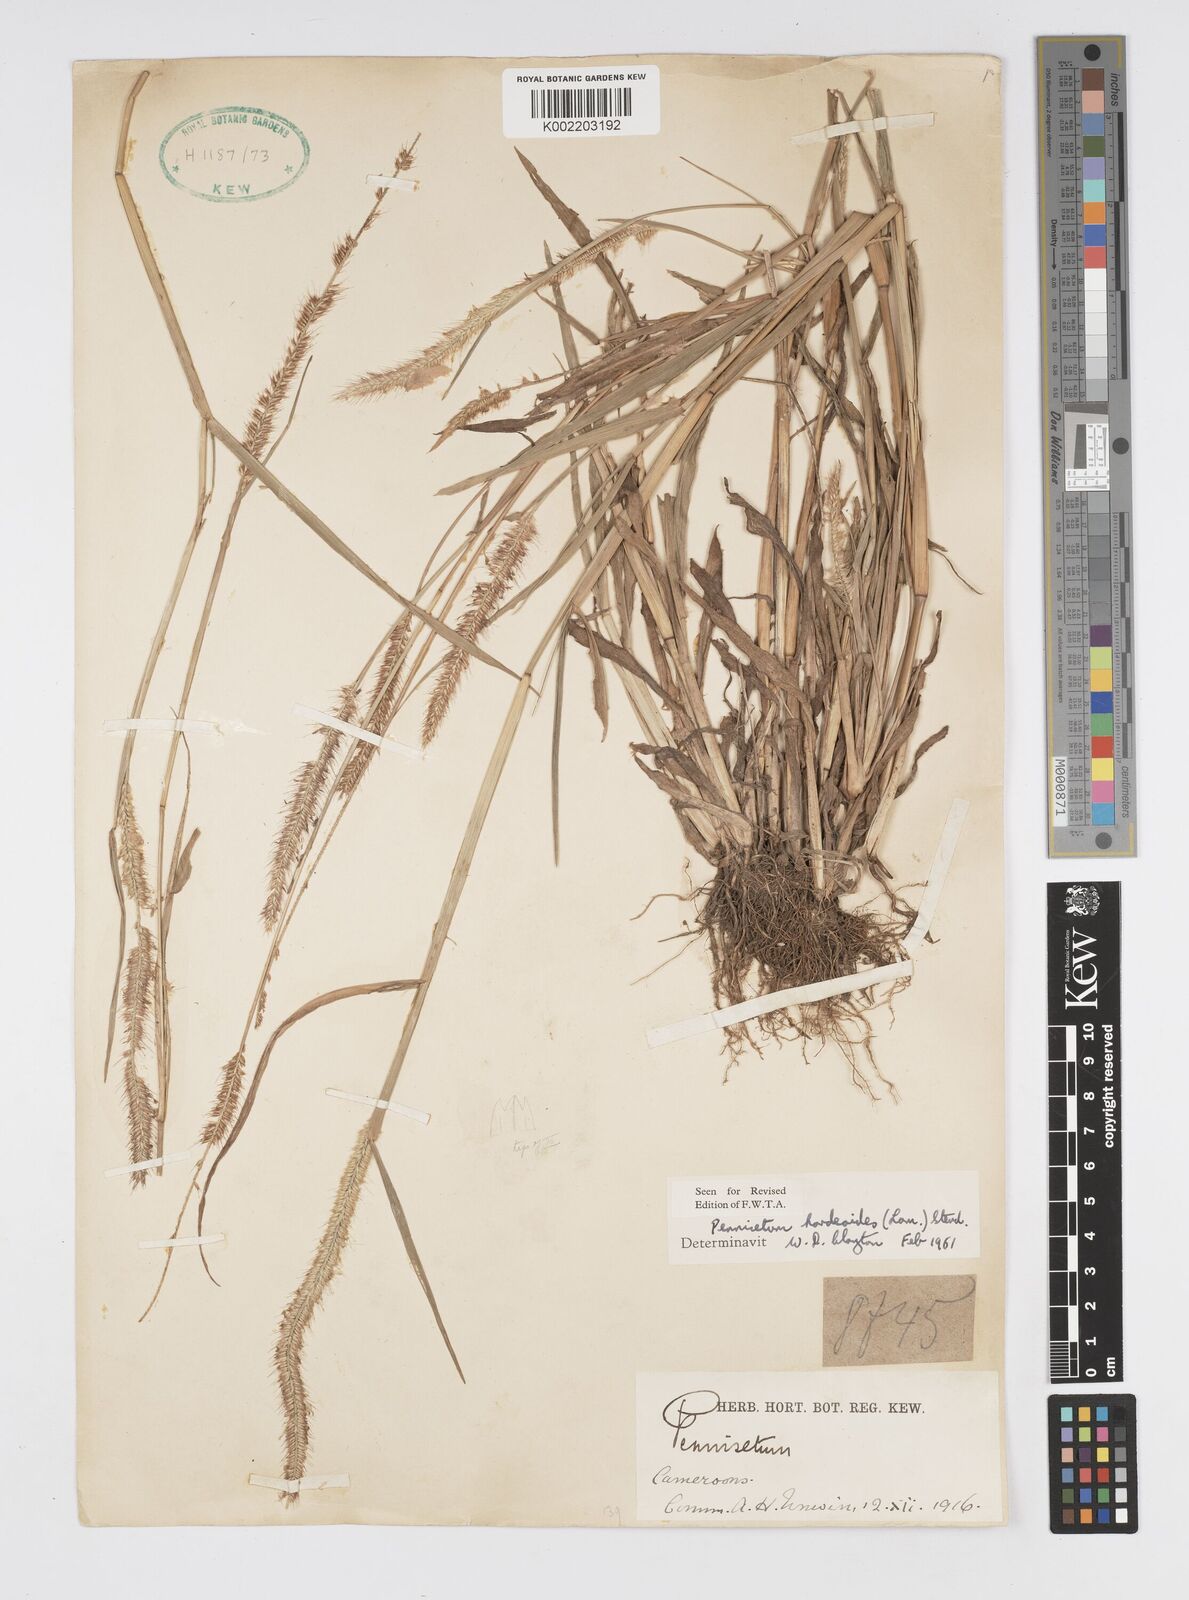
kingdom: Plantae
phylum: Tracheophyta
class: Liliopsida
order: Poales
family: Poaceae
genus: Cenchrus
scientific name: Cenchrus hordeoides
